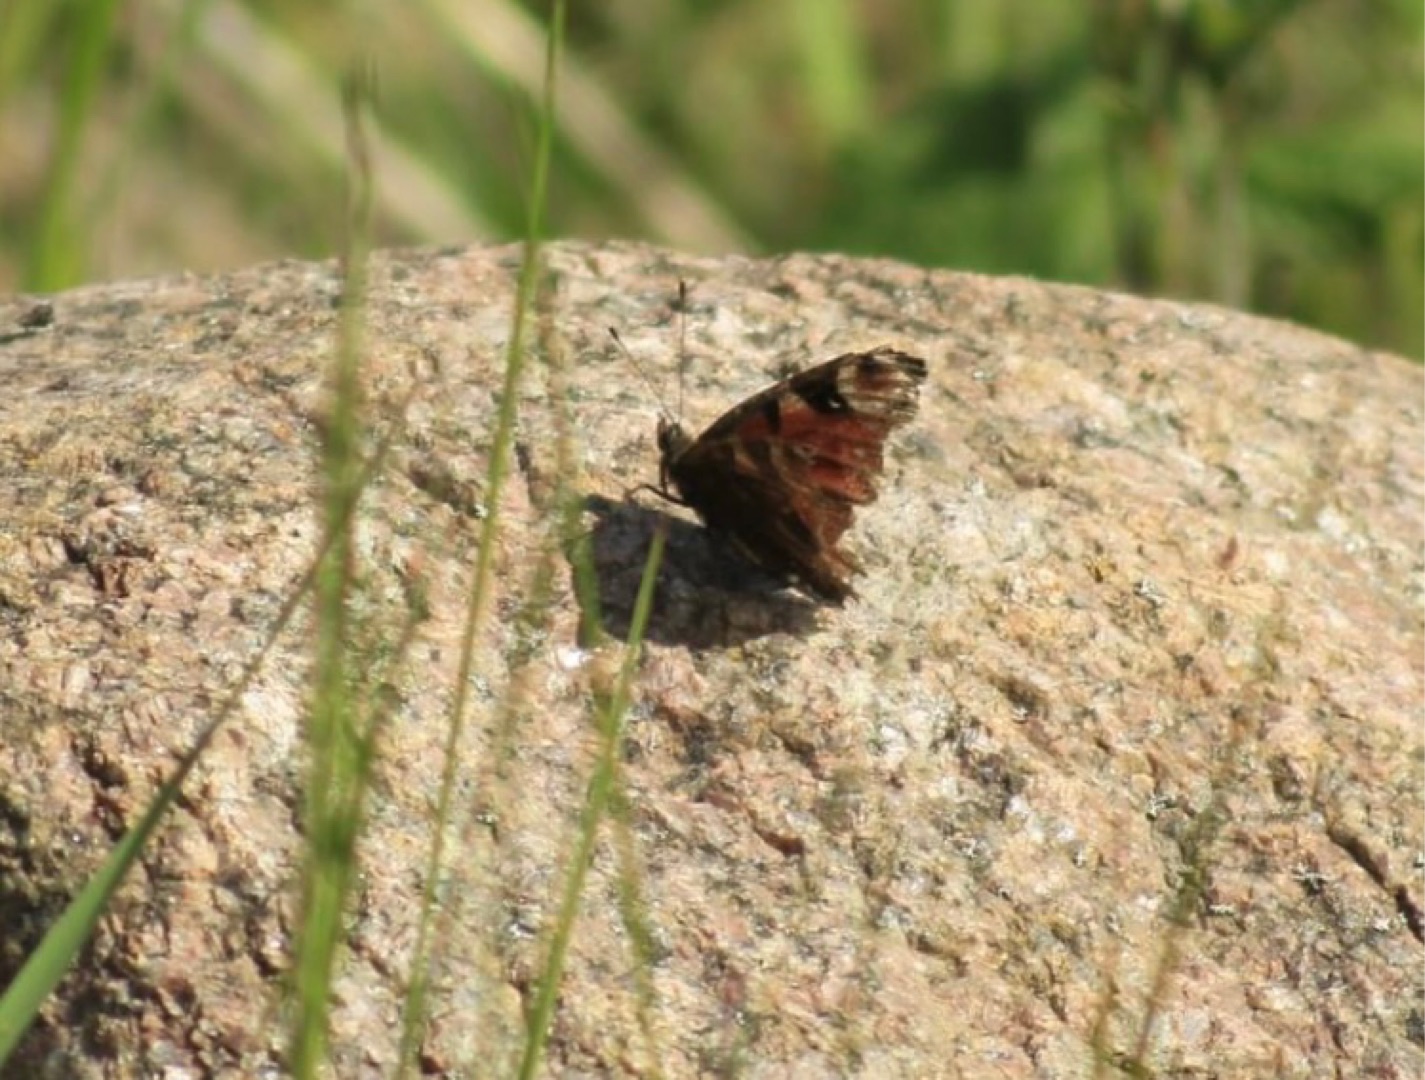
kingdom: Animalia
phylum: Arthropoda
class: Insecta
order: Lepidoptera
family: Nymphalidae
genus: Aglais
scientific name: Aglais io
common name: Dagpåfugleøje
